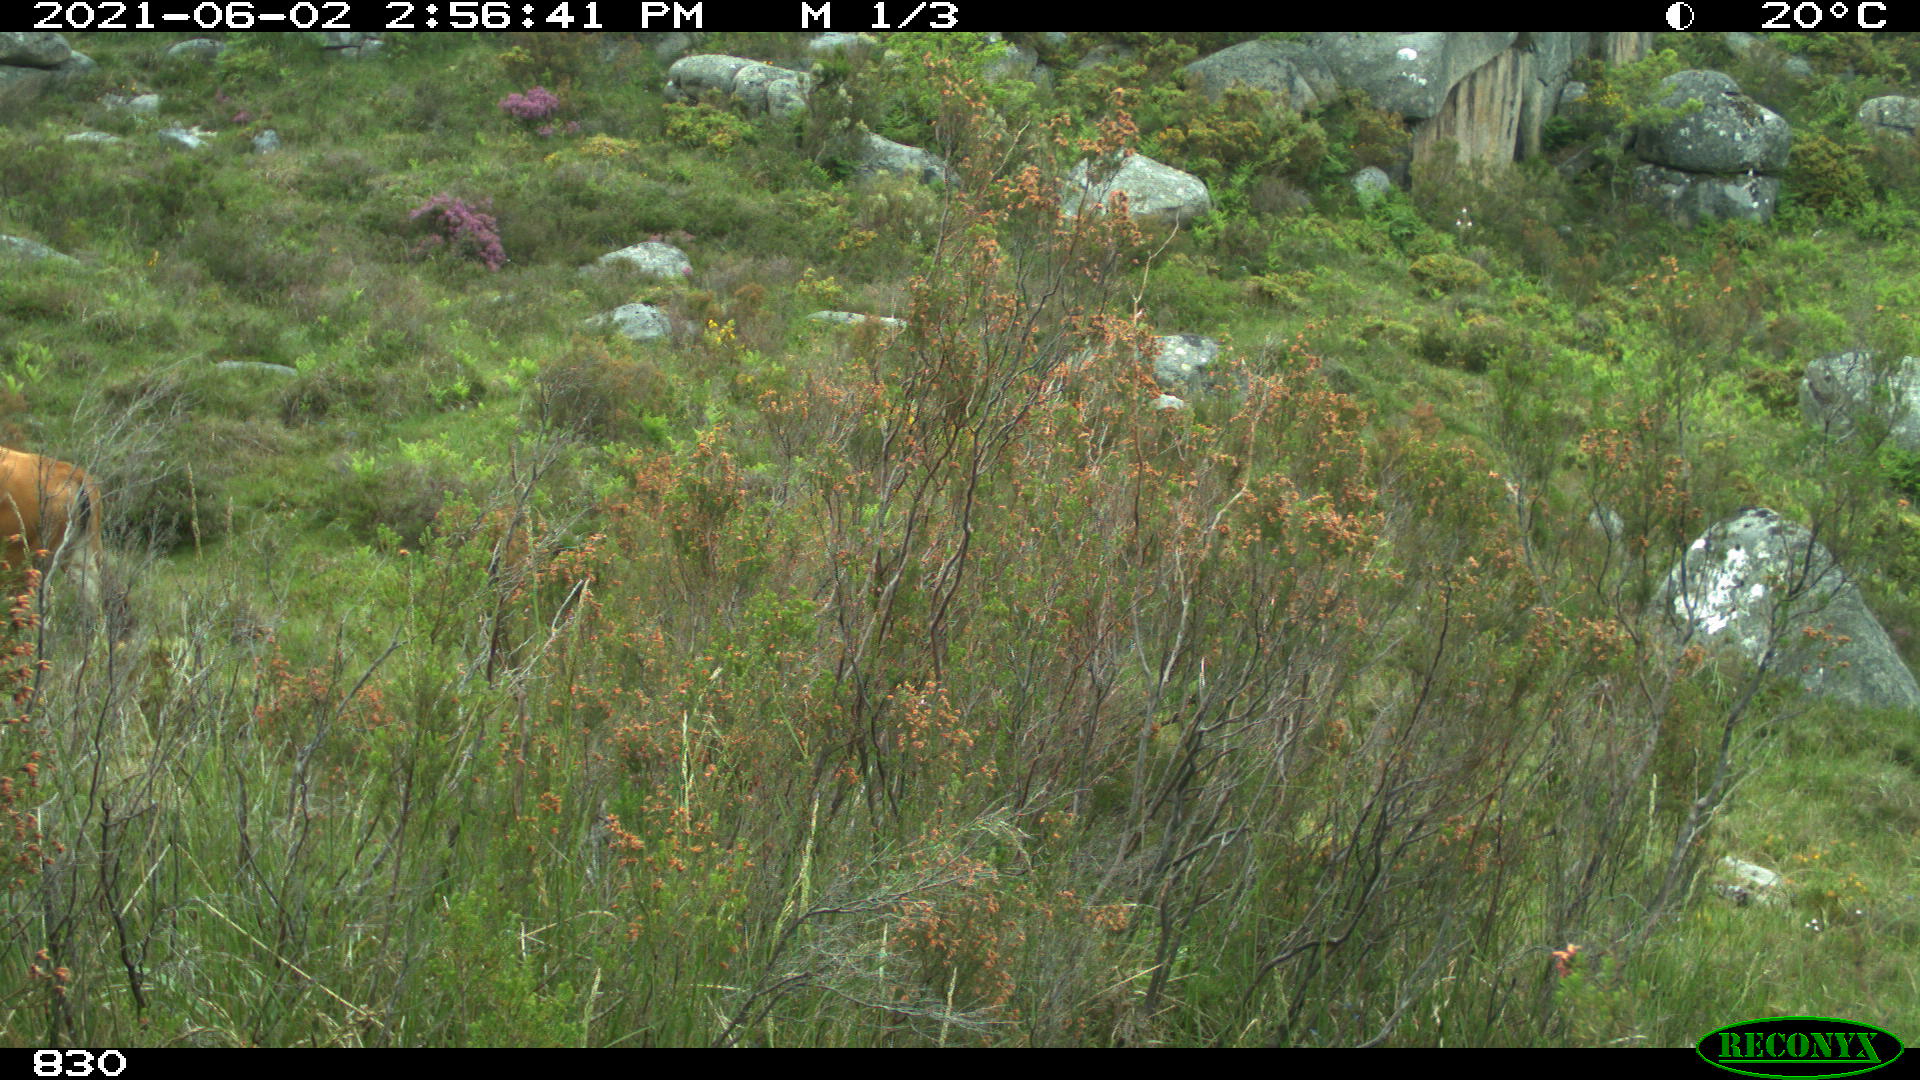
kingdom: Animalia
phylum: Chordata
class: Mammalia
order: Artiodactyla
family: Bovidae
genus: Bos
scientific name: Bos taurus
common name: Domesticated cattle
